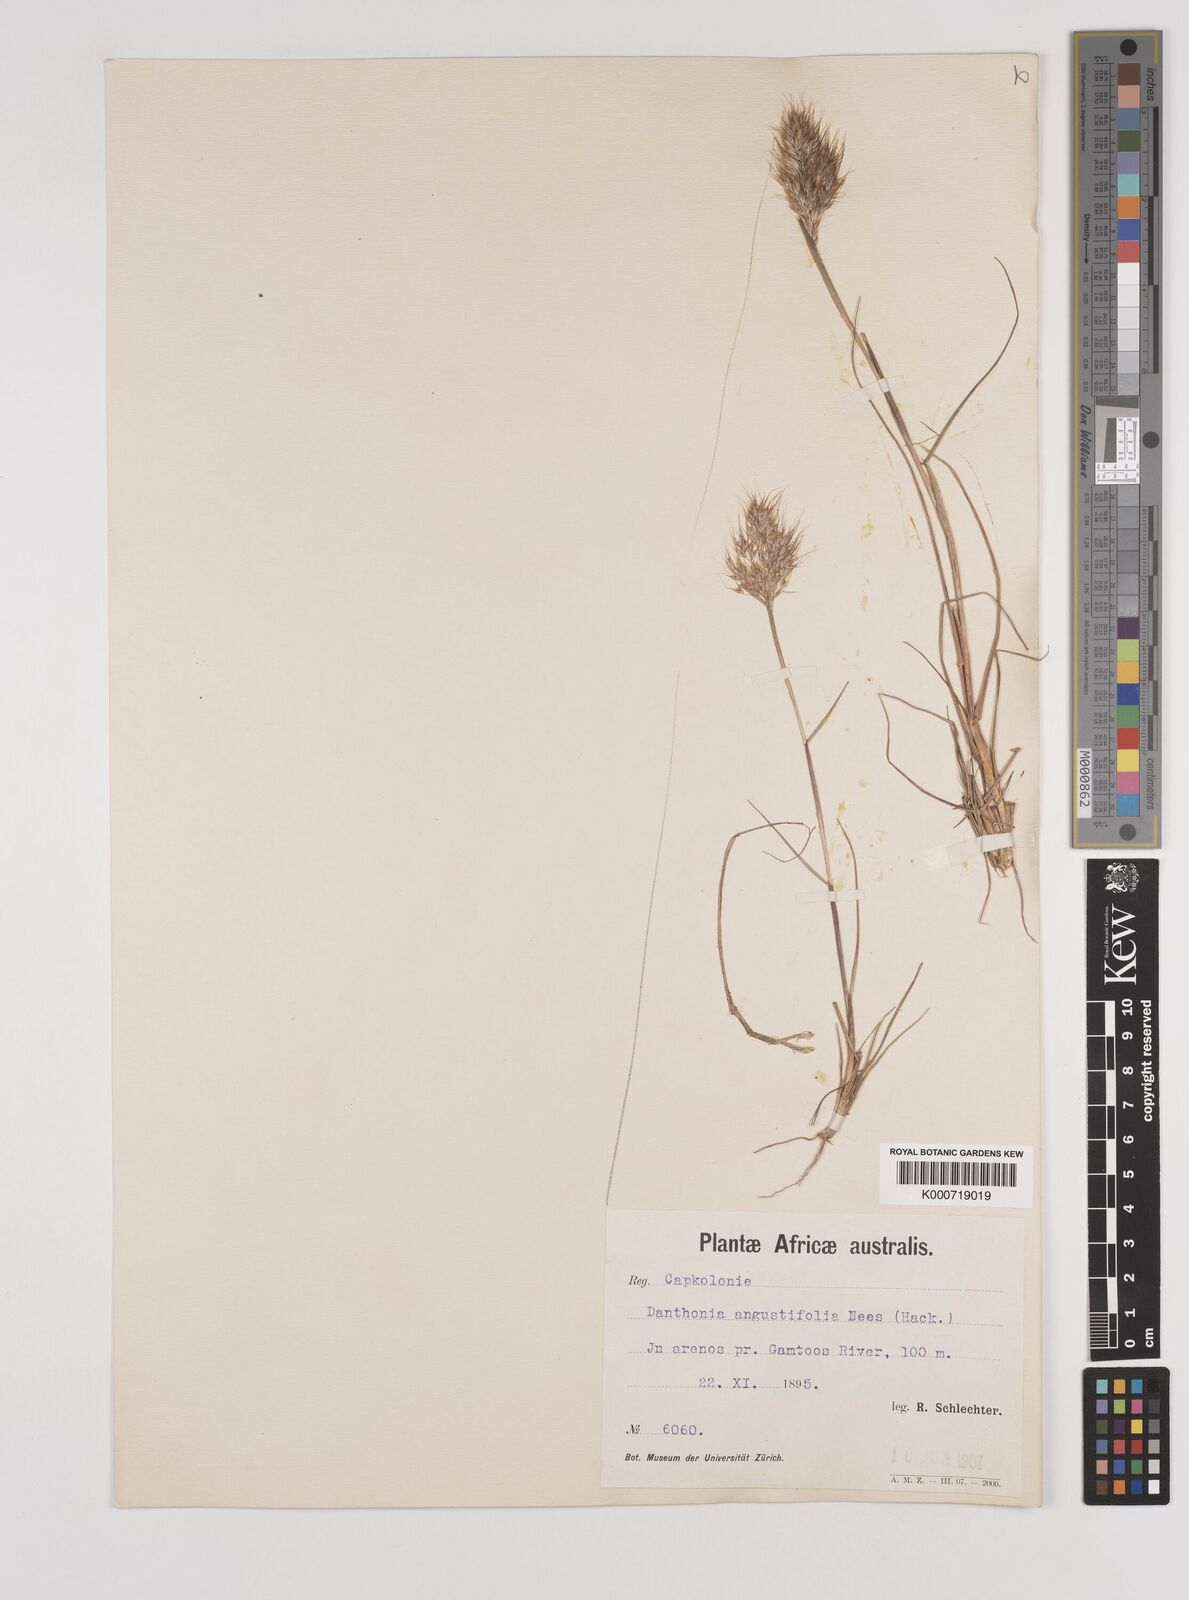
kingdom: Plantae
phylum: Tracheophyta
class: Liliopsida
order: Poales
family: Poaceae
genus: Pentameris
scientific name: Pentameris pallida
